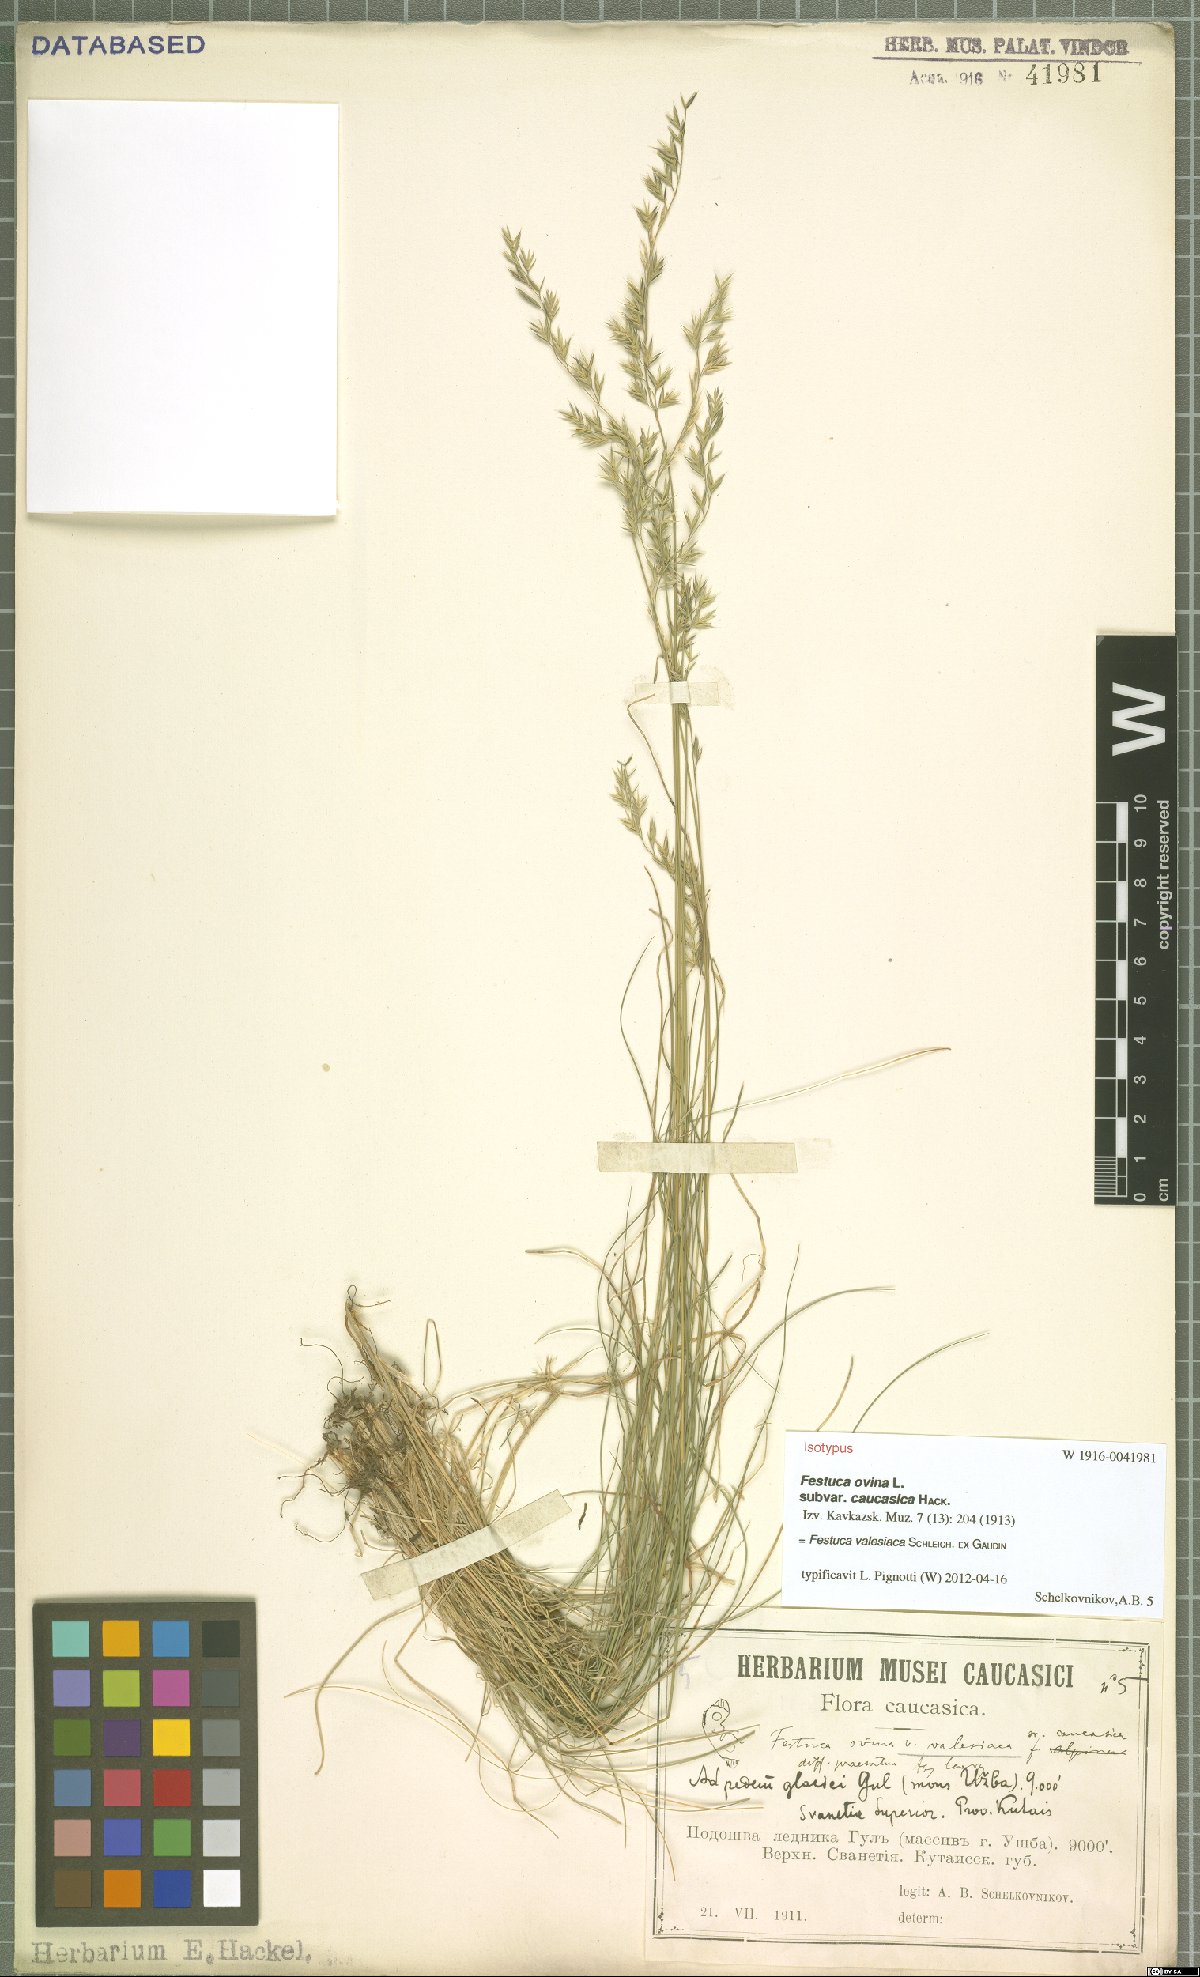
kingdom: Plantae
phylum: Tracheophyta
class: Liliopsida
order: Poales
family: Poaceae
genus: Festuca
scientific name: Festuca valesiaca
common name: Volga fescue
